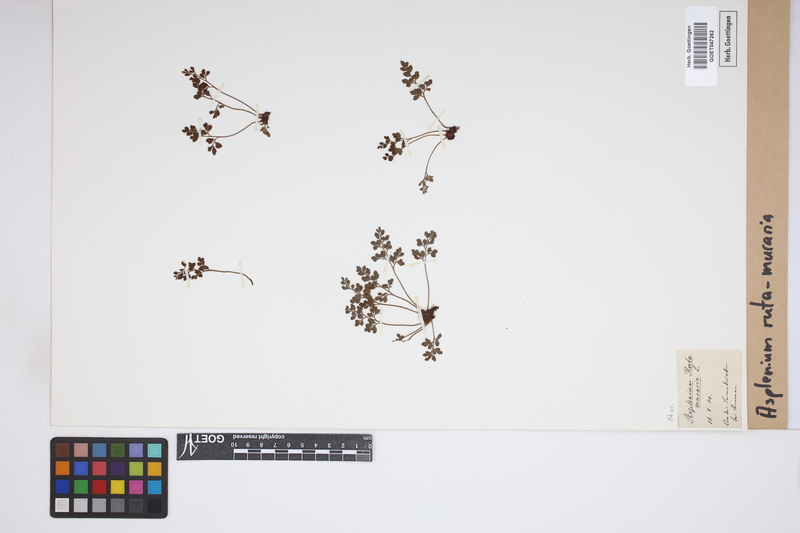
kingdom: Plantae
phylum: Tracheophyta
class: Polypodiopsida
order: Polypodiales
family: Aspleniaceae
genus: Asplenium
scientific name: Asplenium ruta-muraria
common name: Wall-rue
